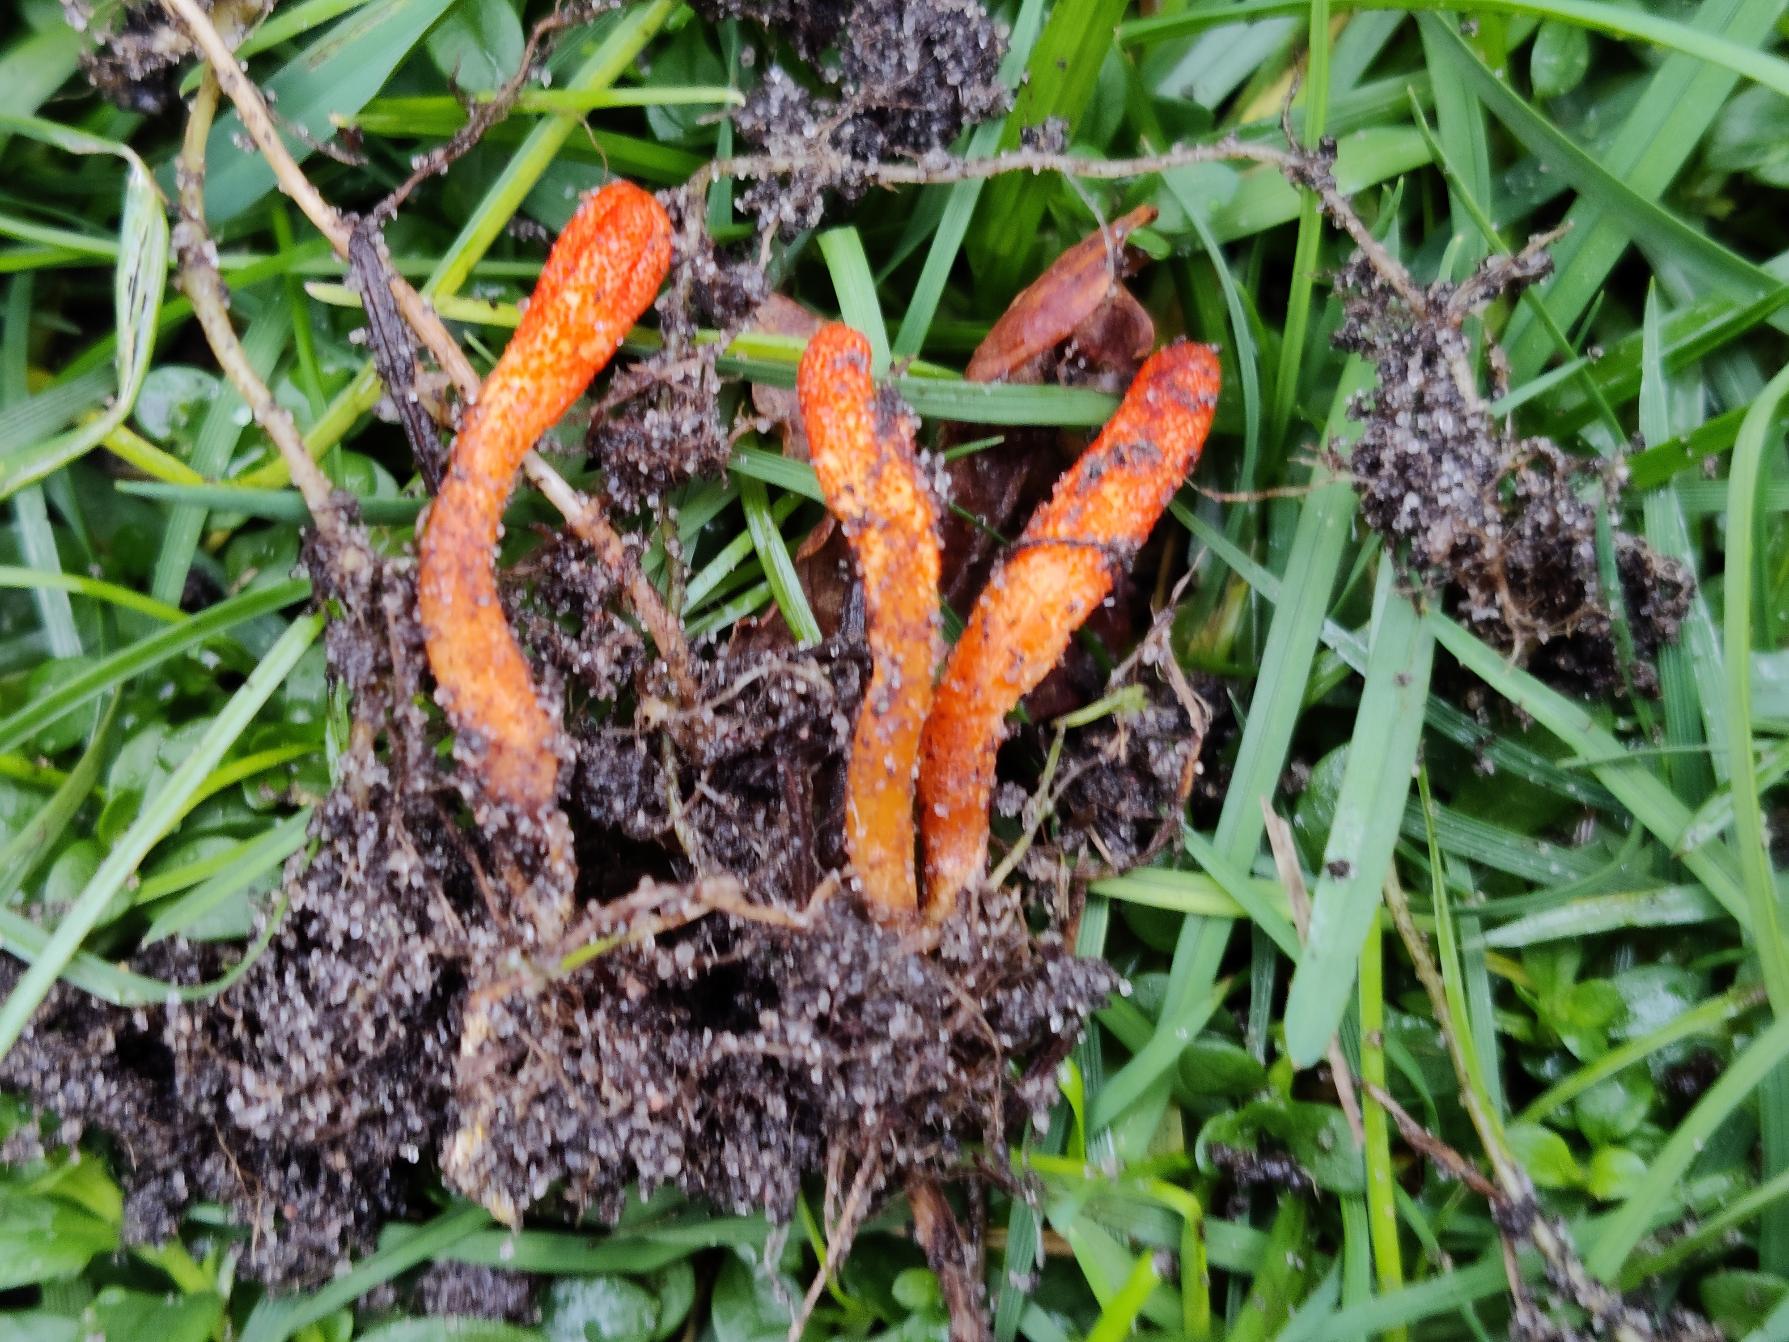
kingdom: Fungi
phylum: Ascomycota
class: Sordariomycetes
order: Hypocreales
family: Cordycipitaceae
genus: Cordyceps
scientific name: Cordyceps militaris
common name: Puppe-snyltekølle
